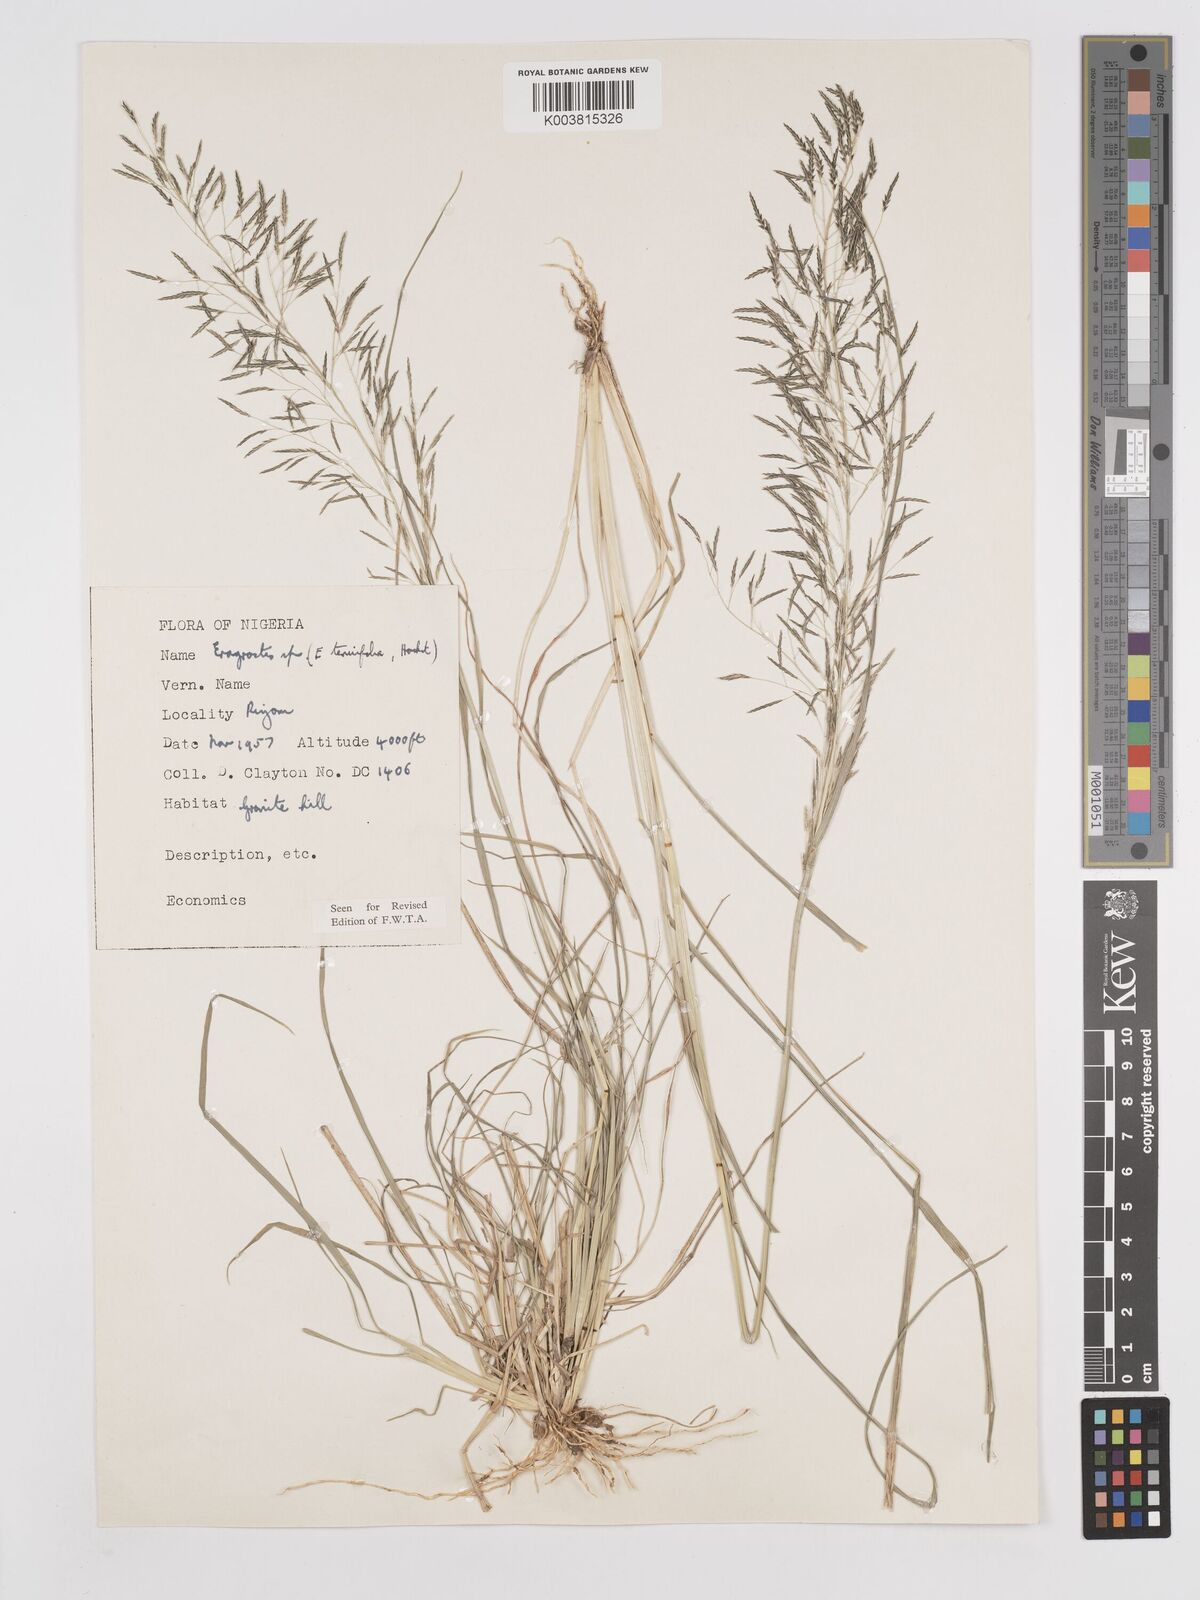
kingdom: Plantae
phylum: Tracheophyta
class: Liliopsida
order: Poales
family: Poaceae
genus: Eragrostis
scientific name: Eragrostis tenuifolia
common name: Elastic grass
